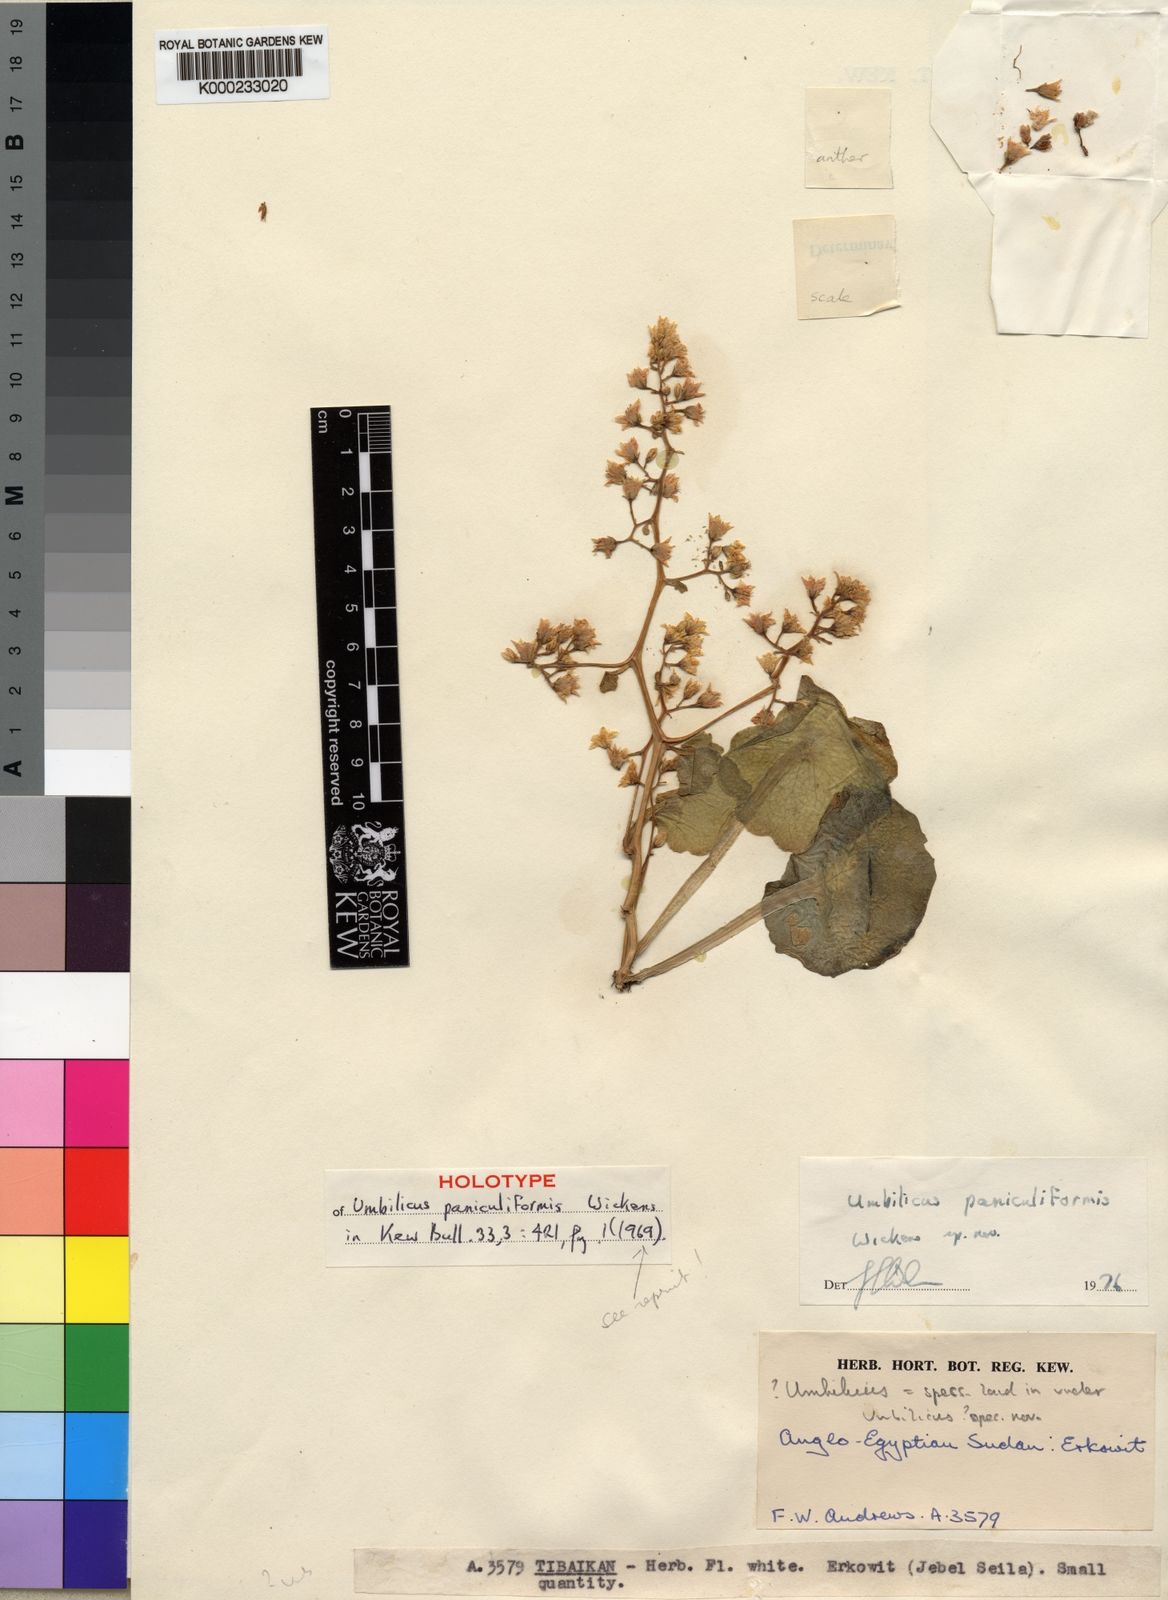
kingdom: Plantae
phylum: Tracheophyta
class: Magnoliopsida
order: Saxifragales
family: Crassulaceae
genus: Umbilicus
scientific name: Umbilicus paniculiformis
